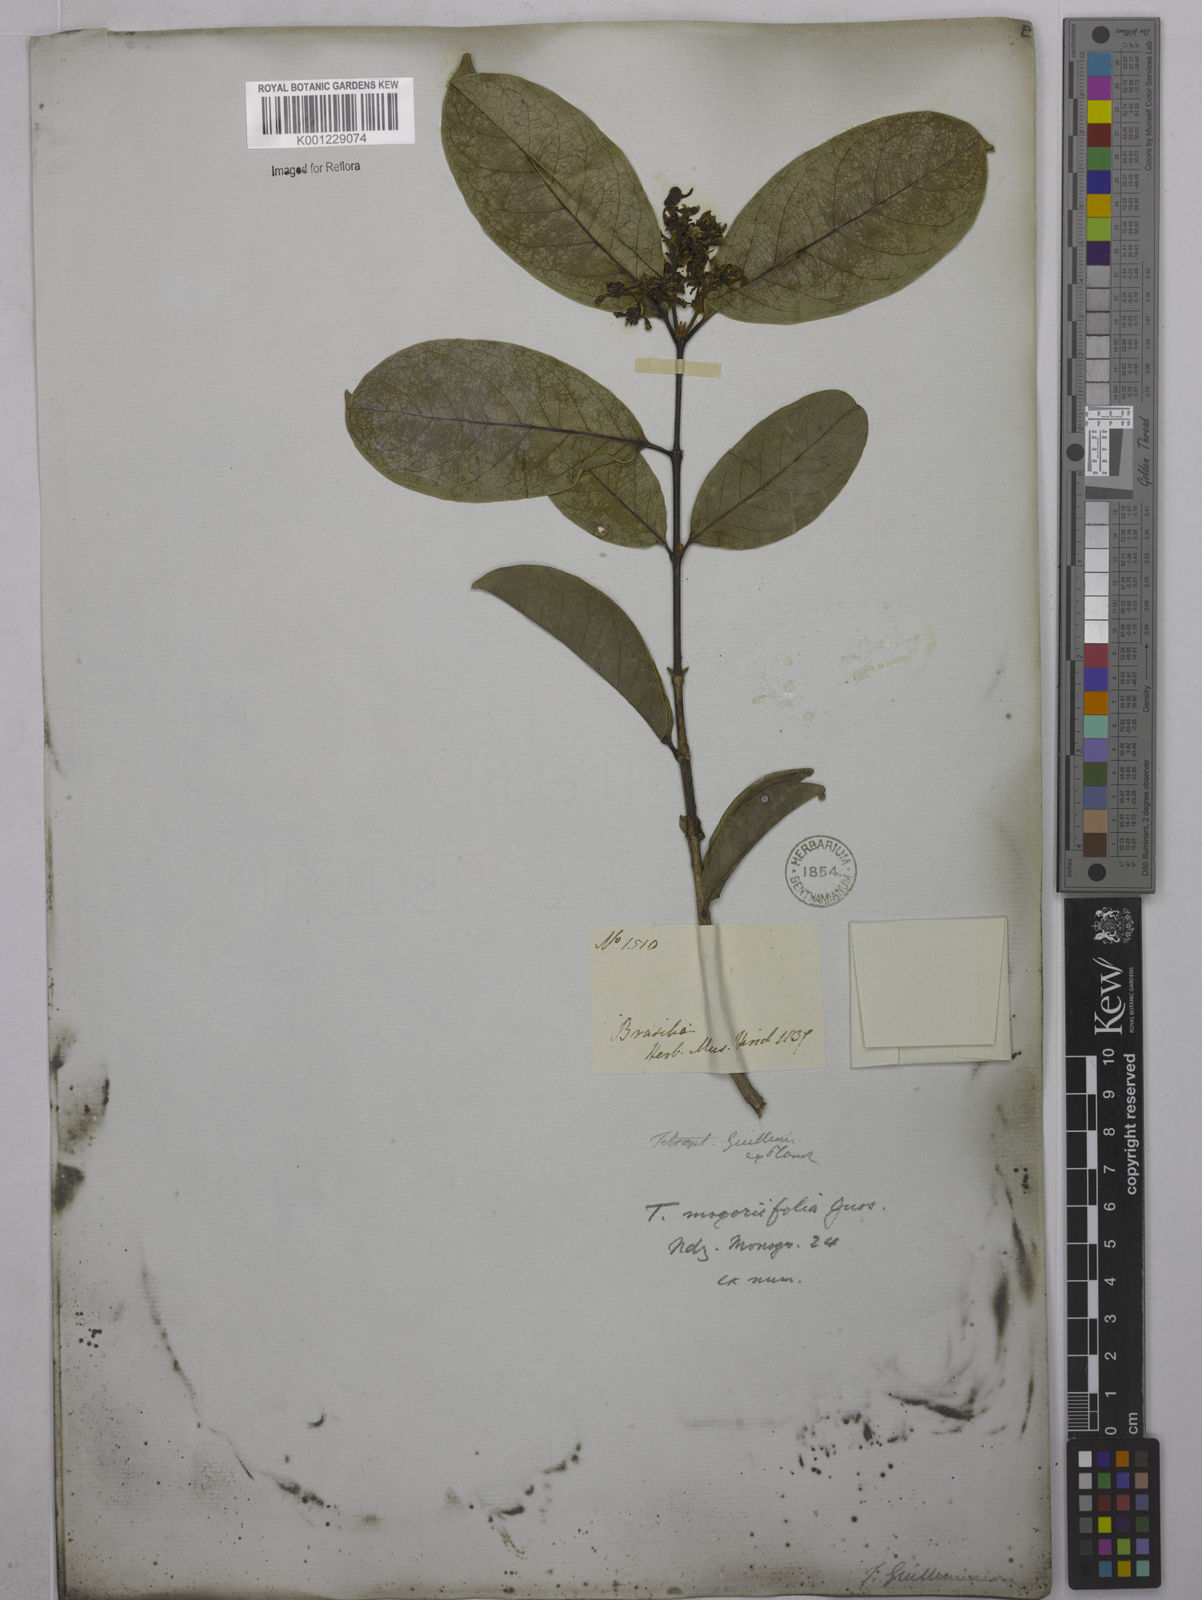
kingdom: Plantae
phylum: Tracheophyta
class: Magnoliopsida
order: Malpighiales
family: Malpighiaceae
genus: Niedenzuella
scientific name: Niedenzuella mogoriifolia
